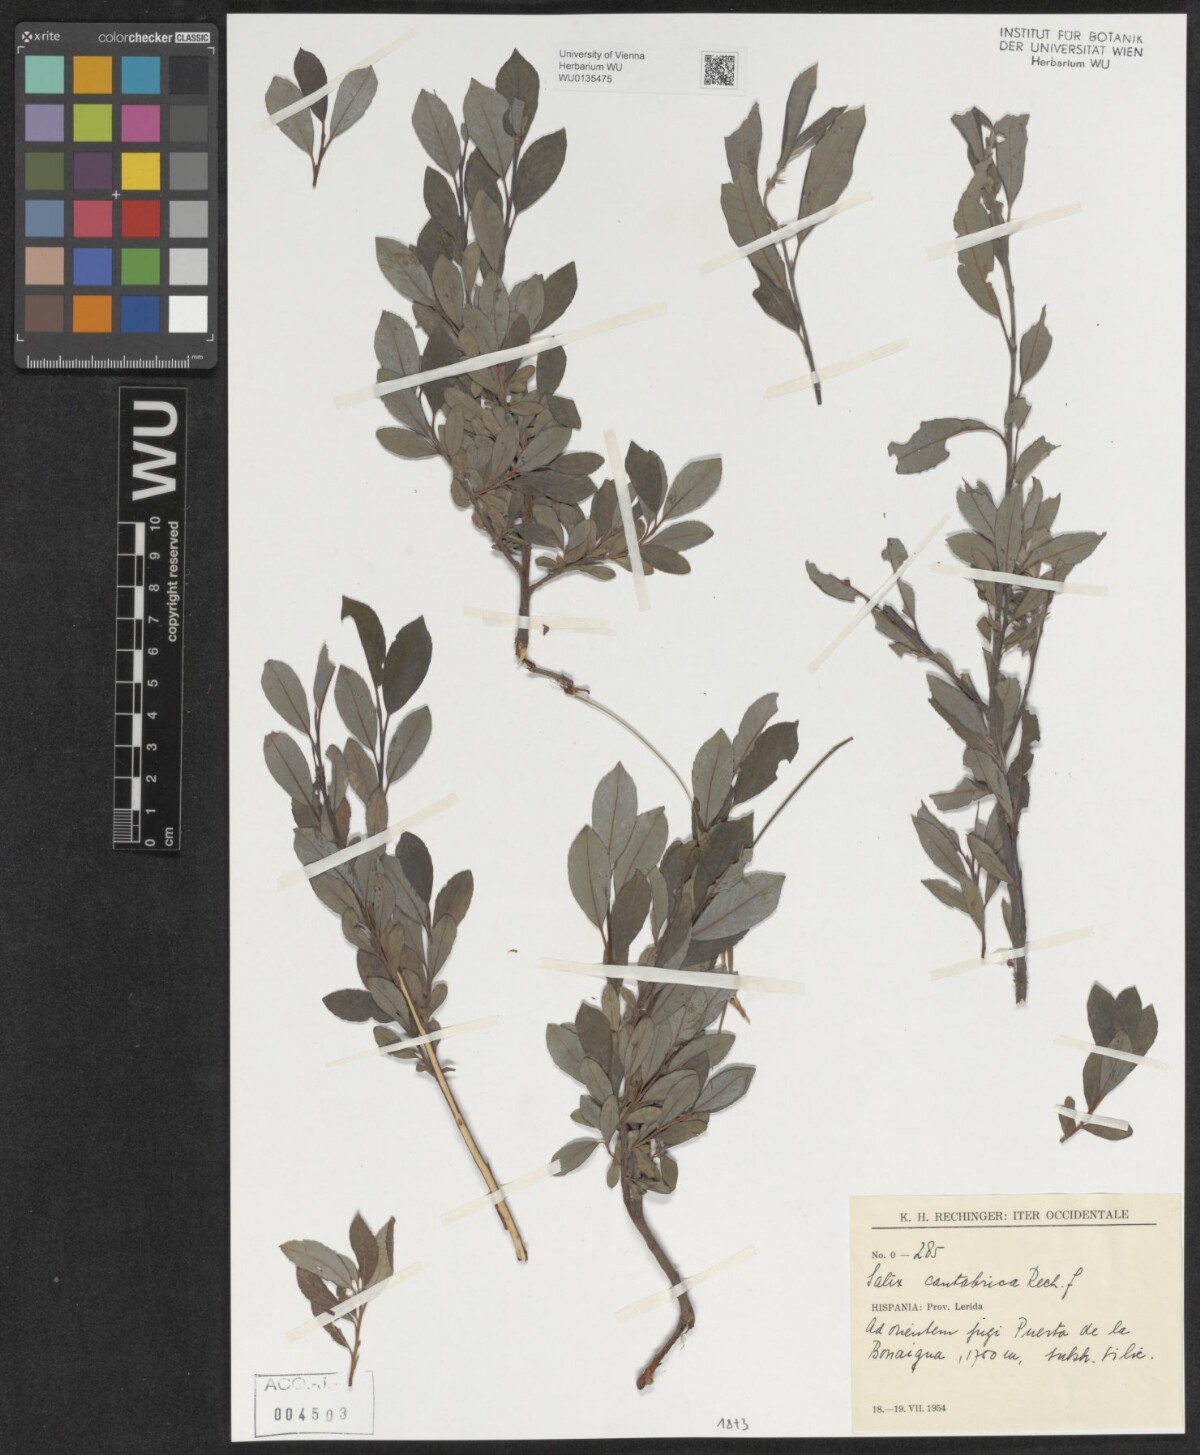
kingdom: Plantae
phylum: Tracheophyta
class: Magnoliopsida
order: Malpighiales
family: Salicaceae
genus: Salix
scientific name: Salix cantabrica
